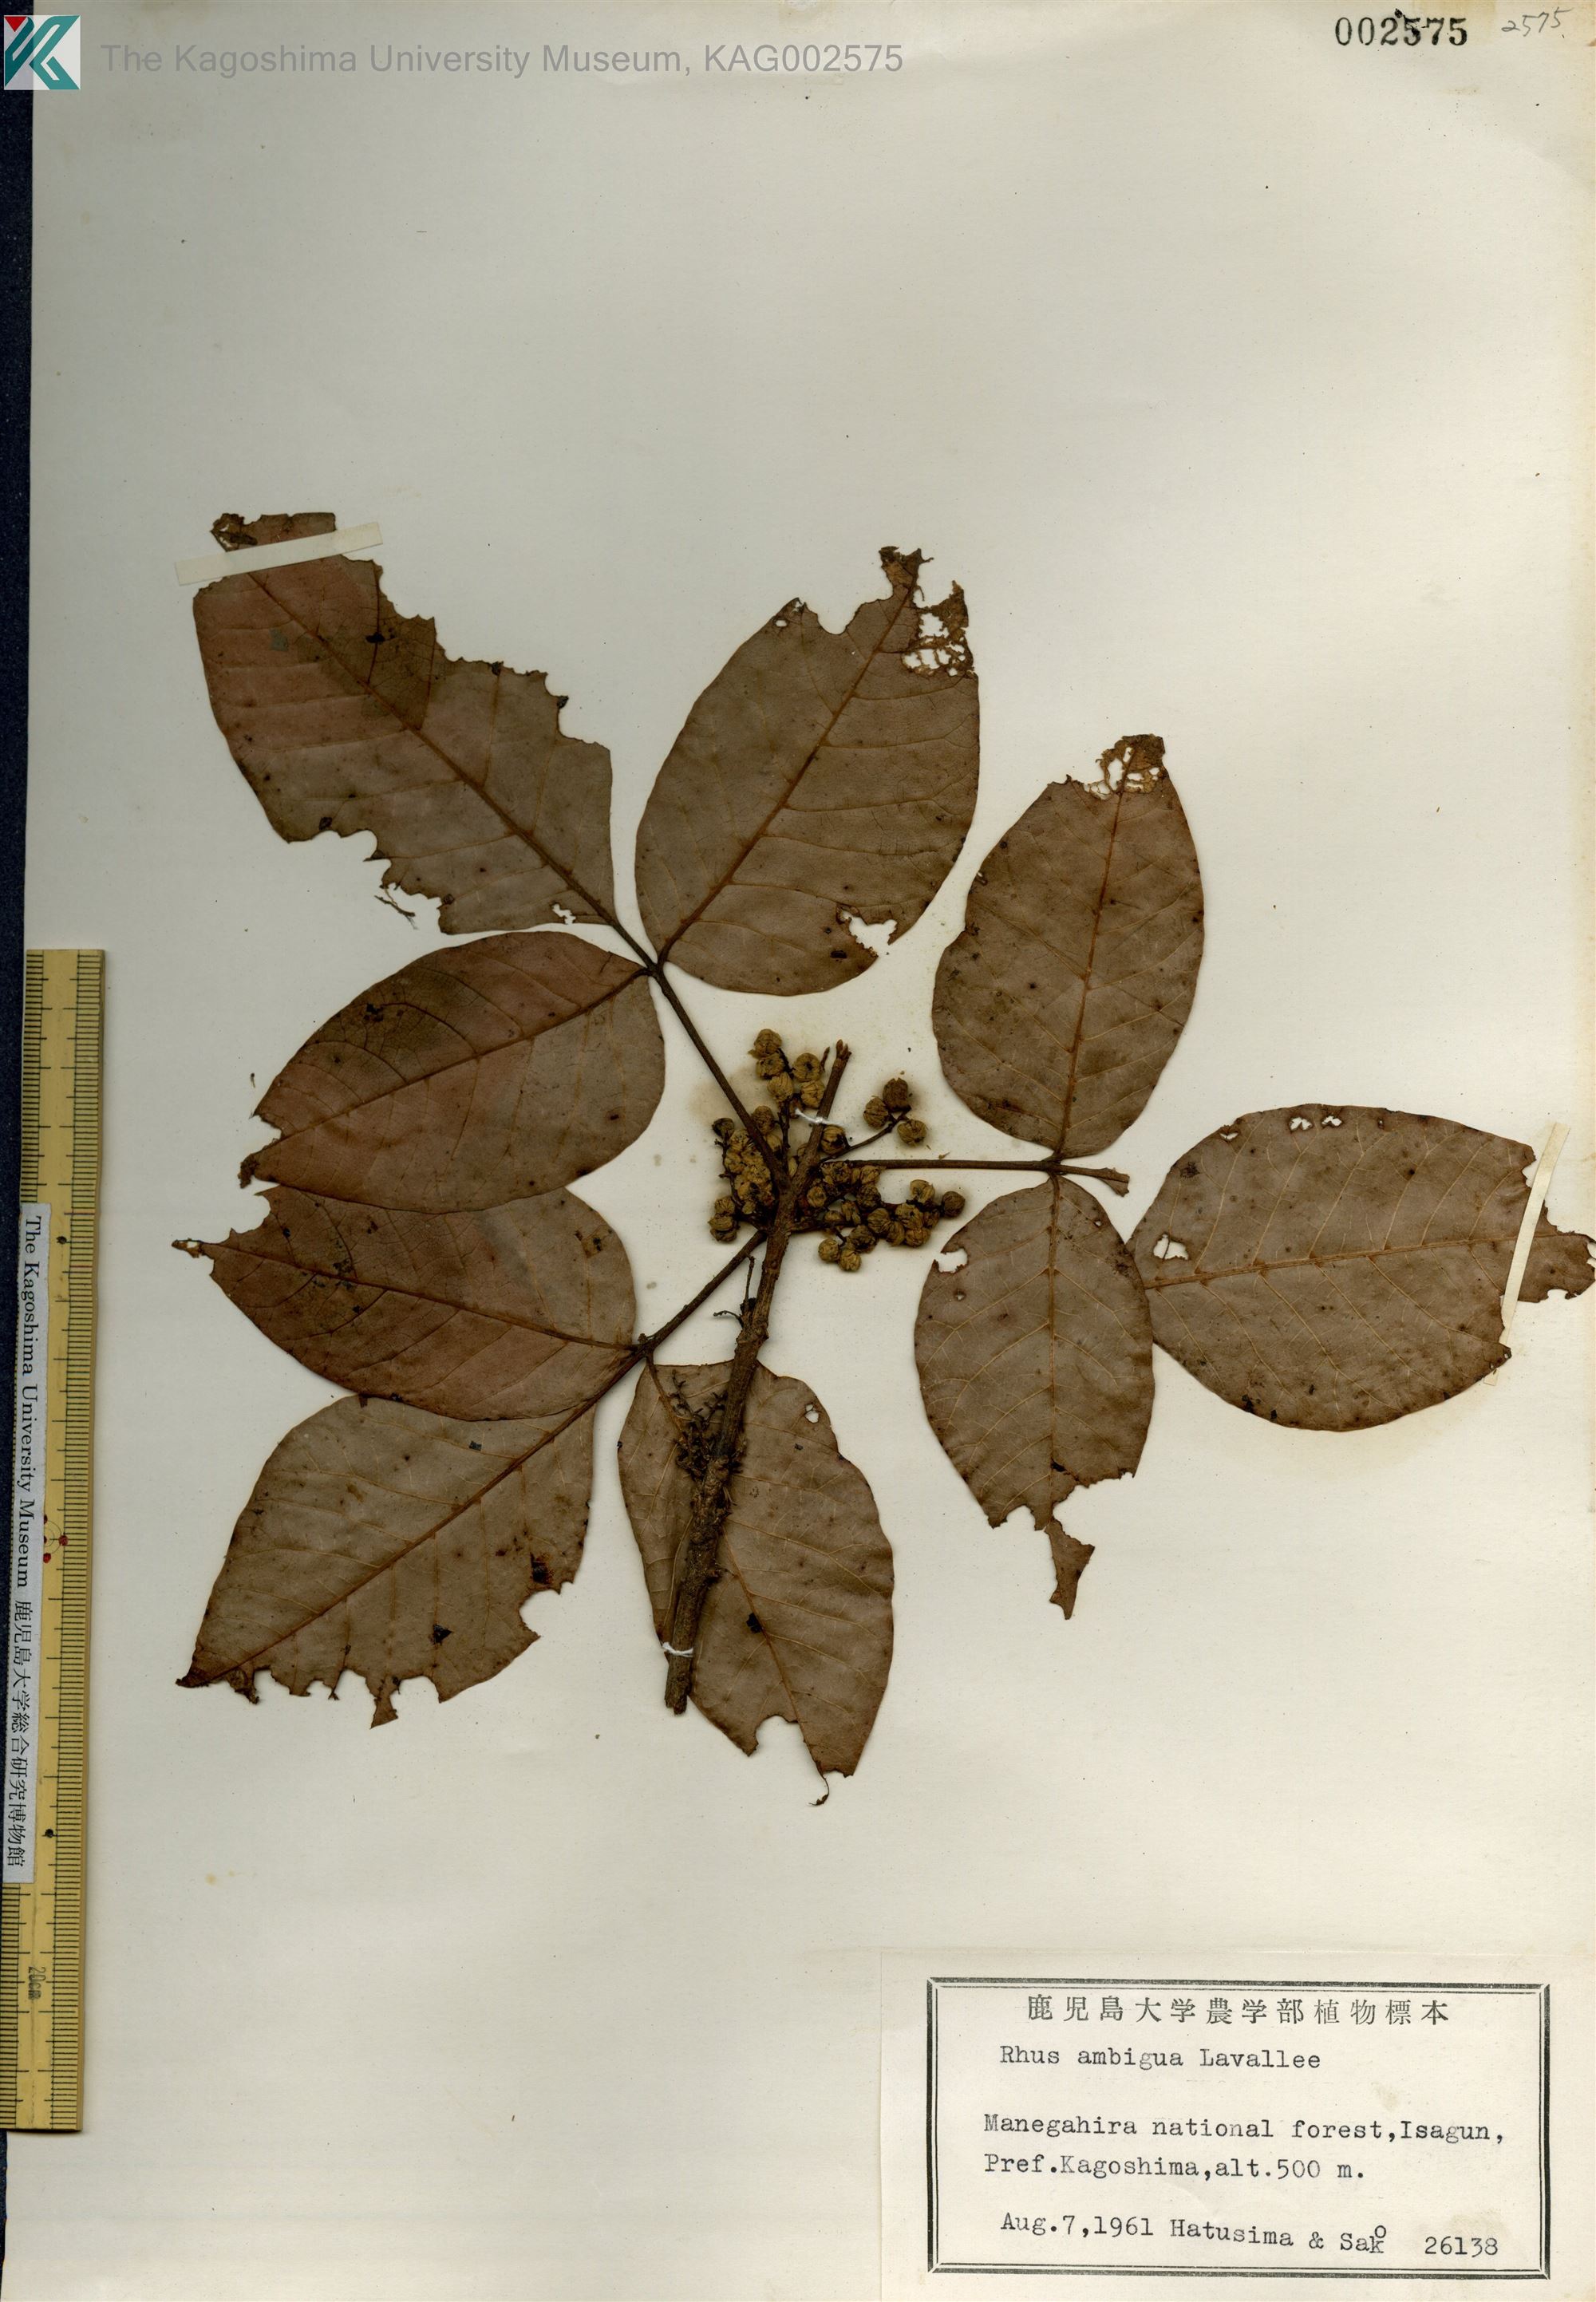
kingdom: Plantae
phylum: Tracheophyta
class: Magnoliopsida
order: Sapindales
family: Anacardiaceae
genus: Toxicodendron
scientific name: Toxicodendron orientale
